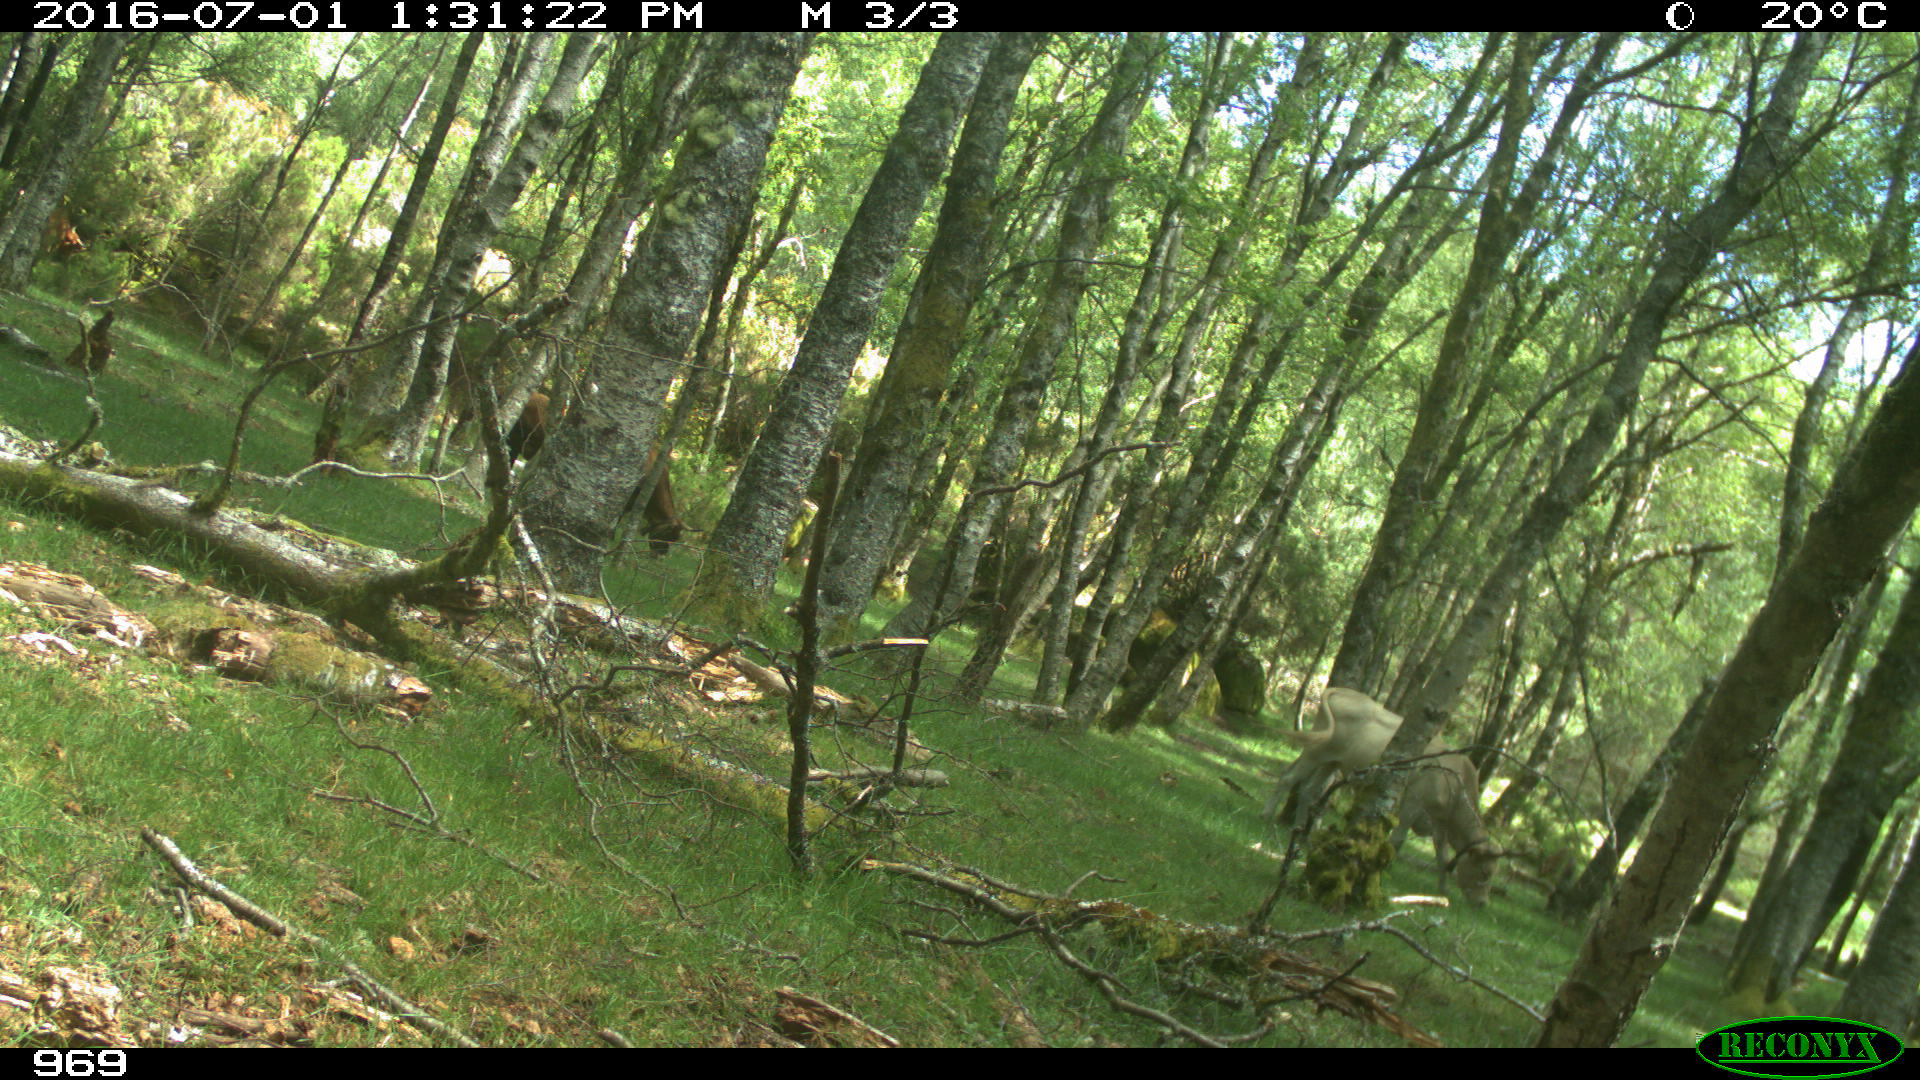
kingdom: Animalia
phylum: Chordata
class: Mammalia
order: Artiodactyla
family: Bovidae
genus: Bos
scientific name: Bos taurus
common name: Domesticated cattle
